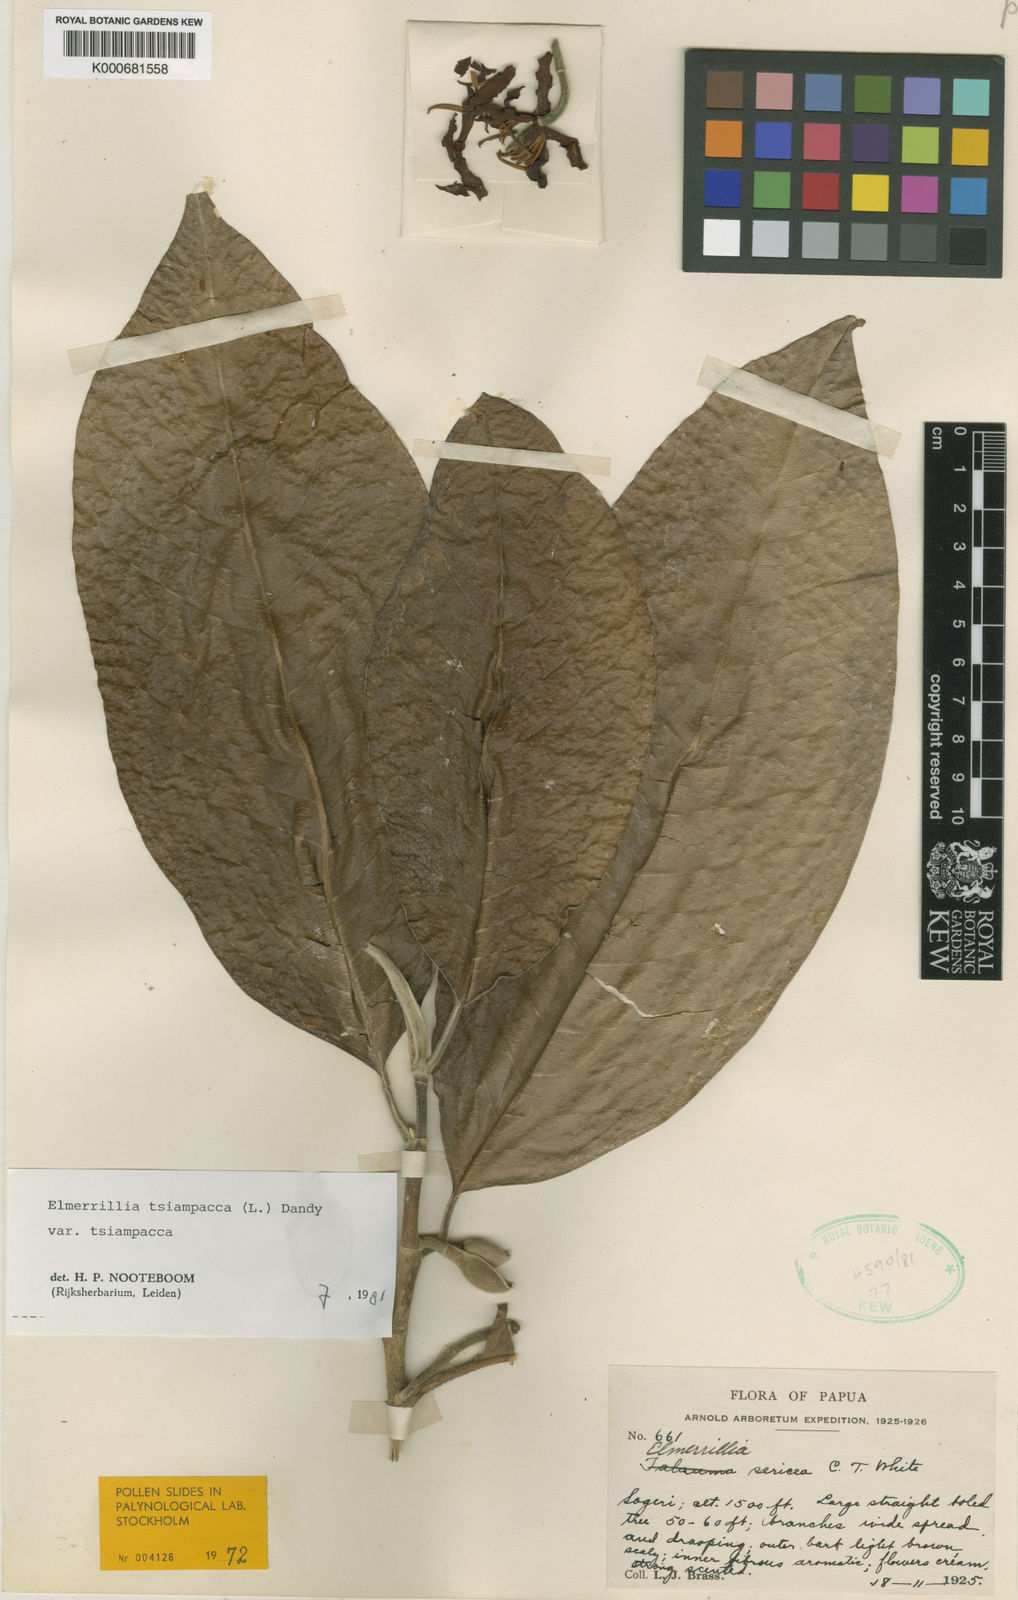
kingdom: Plantae
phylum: Tracheophyta
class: Magnoliopsida
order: Magnoliales
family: Magnoliaceae
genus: Magnolia
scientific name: Magnolia tsiampacca
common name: Wau-beech
